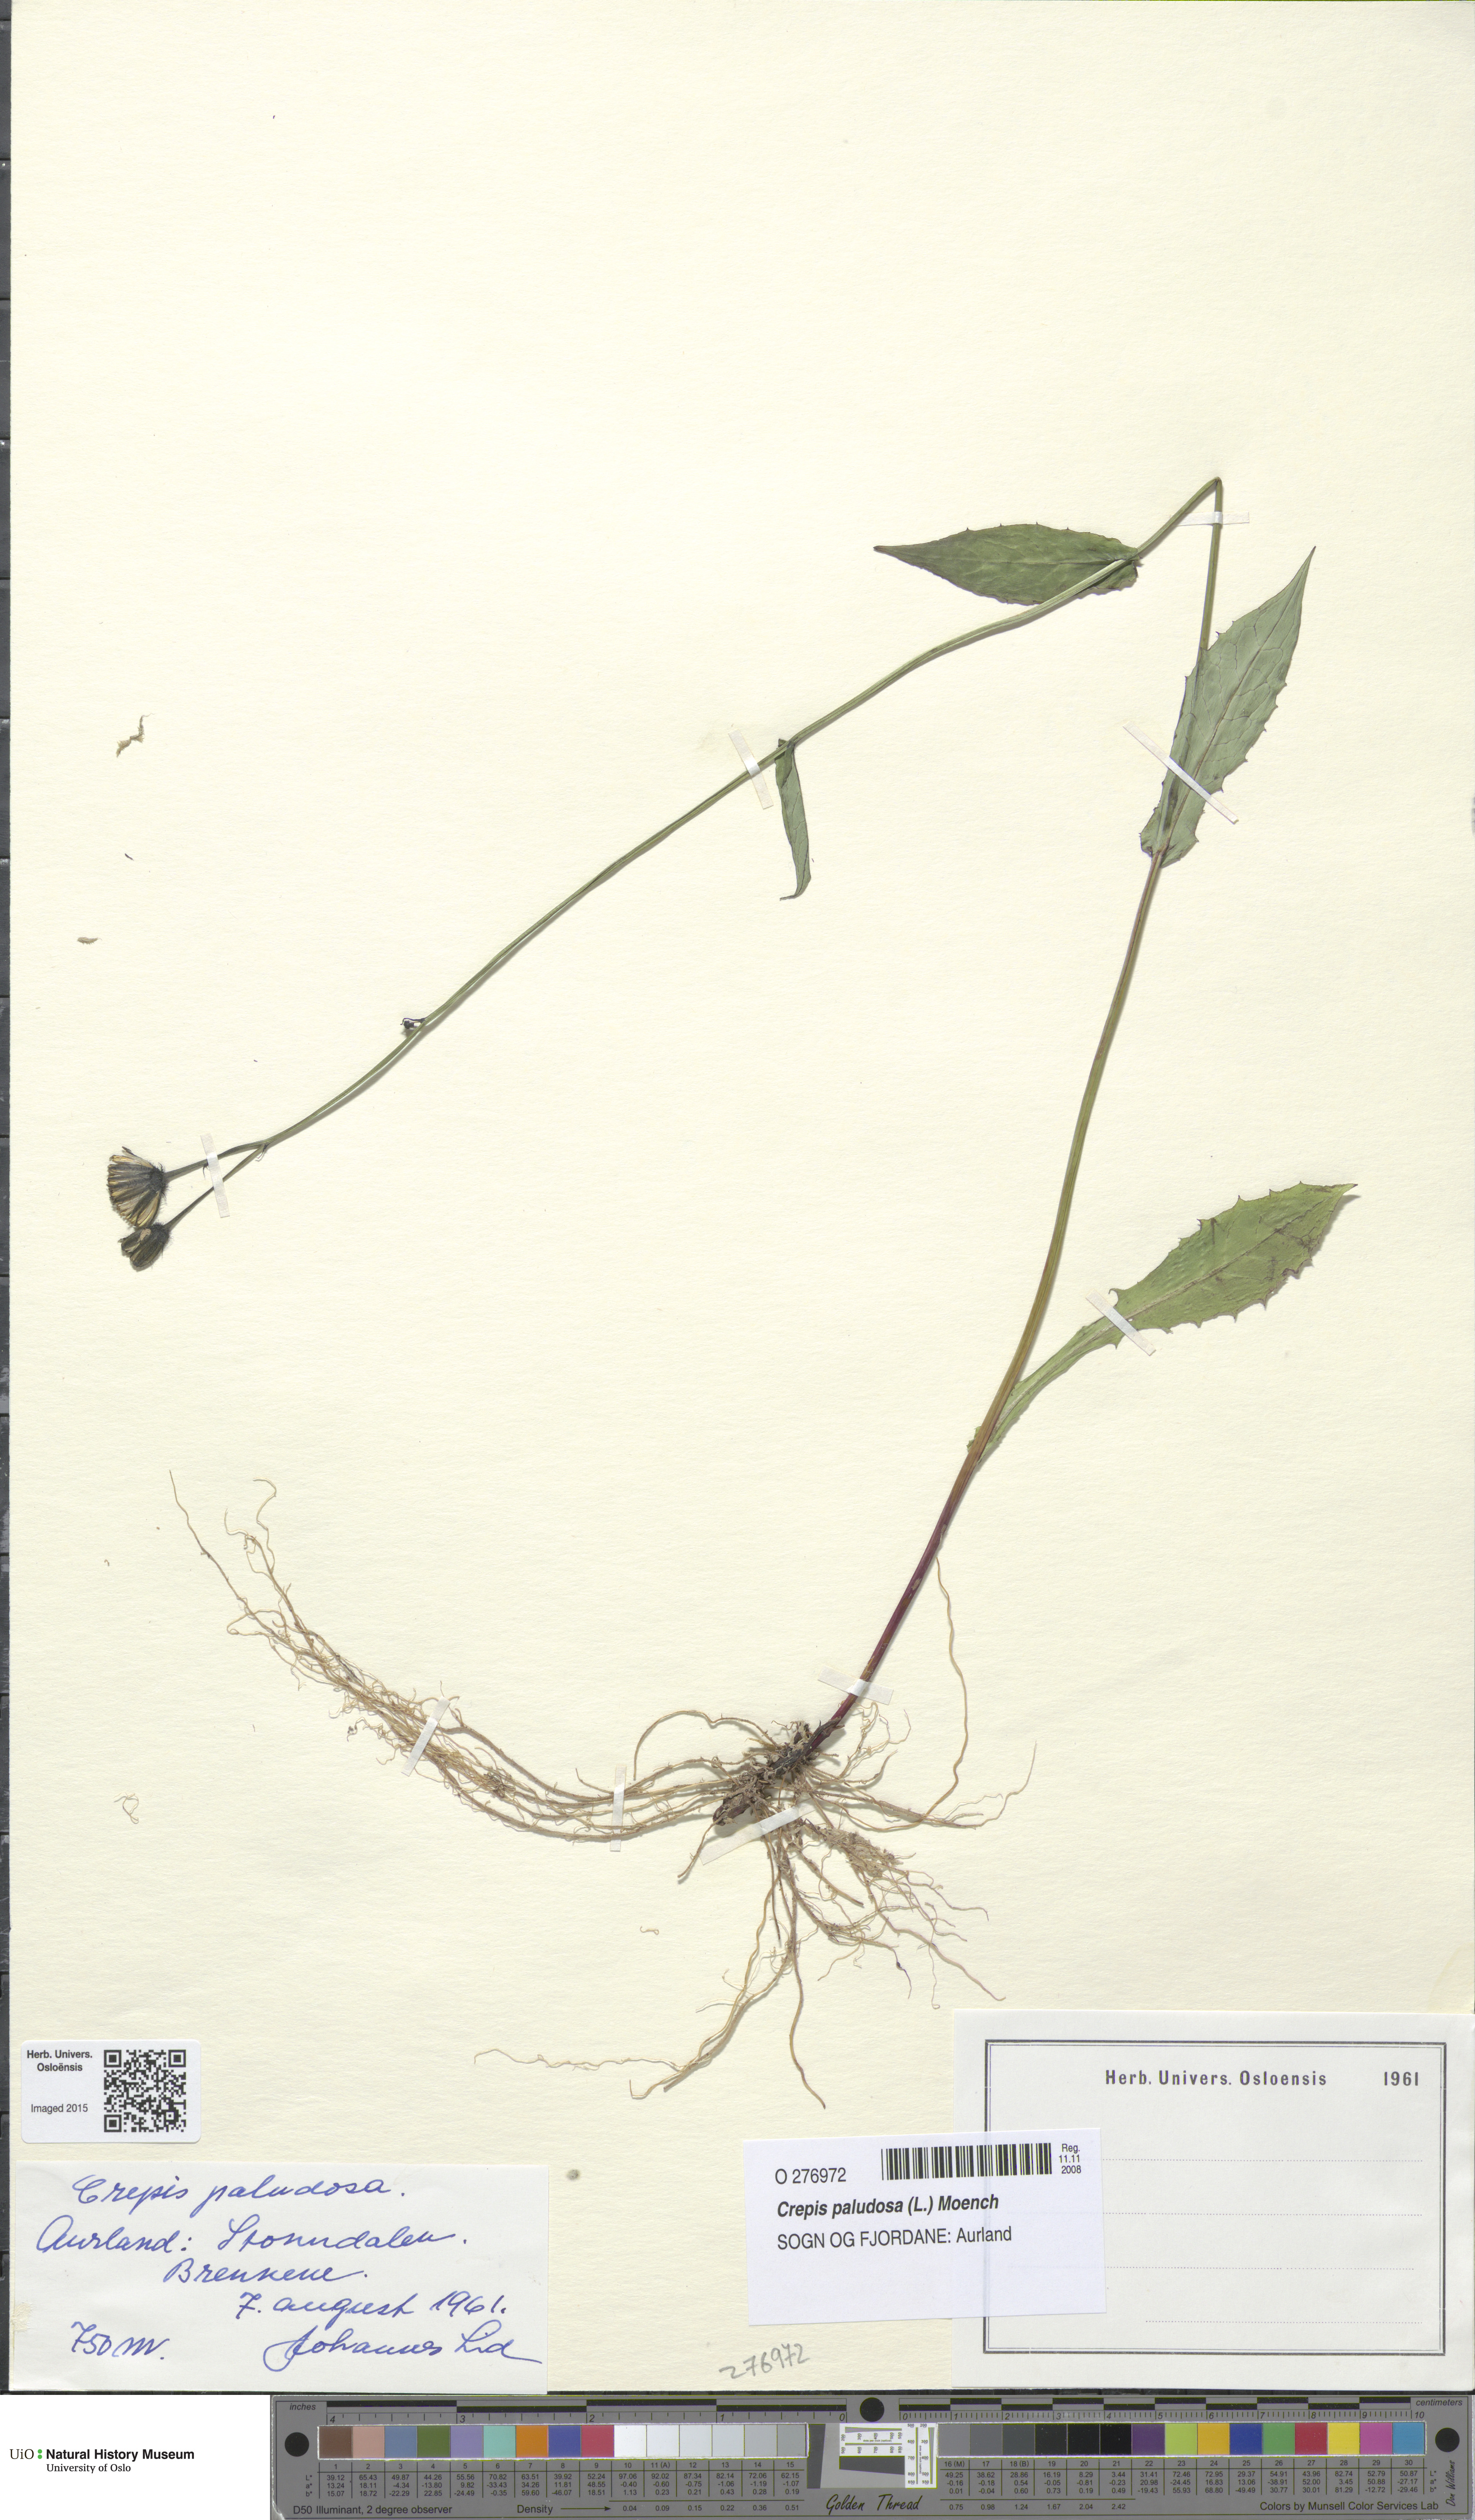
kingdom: Plantae
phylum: Tracheophyta
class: Magnoliopsida
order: Asterales
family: Asteraceae
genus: Crepis
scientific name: Crepis paludosa
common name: Marsh hawk's-beard
